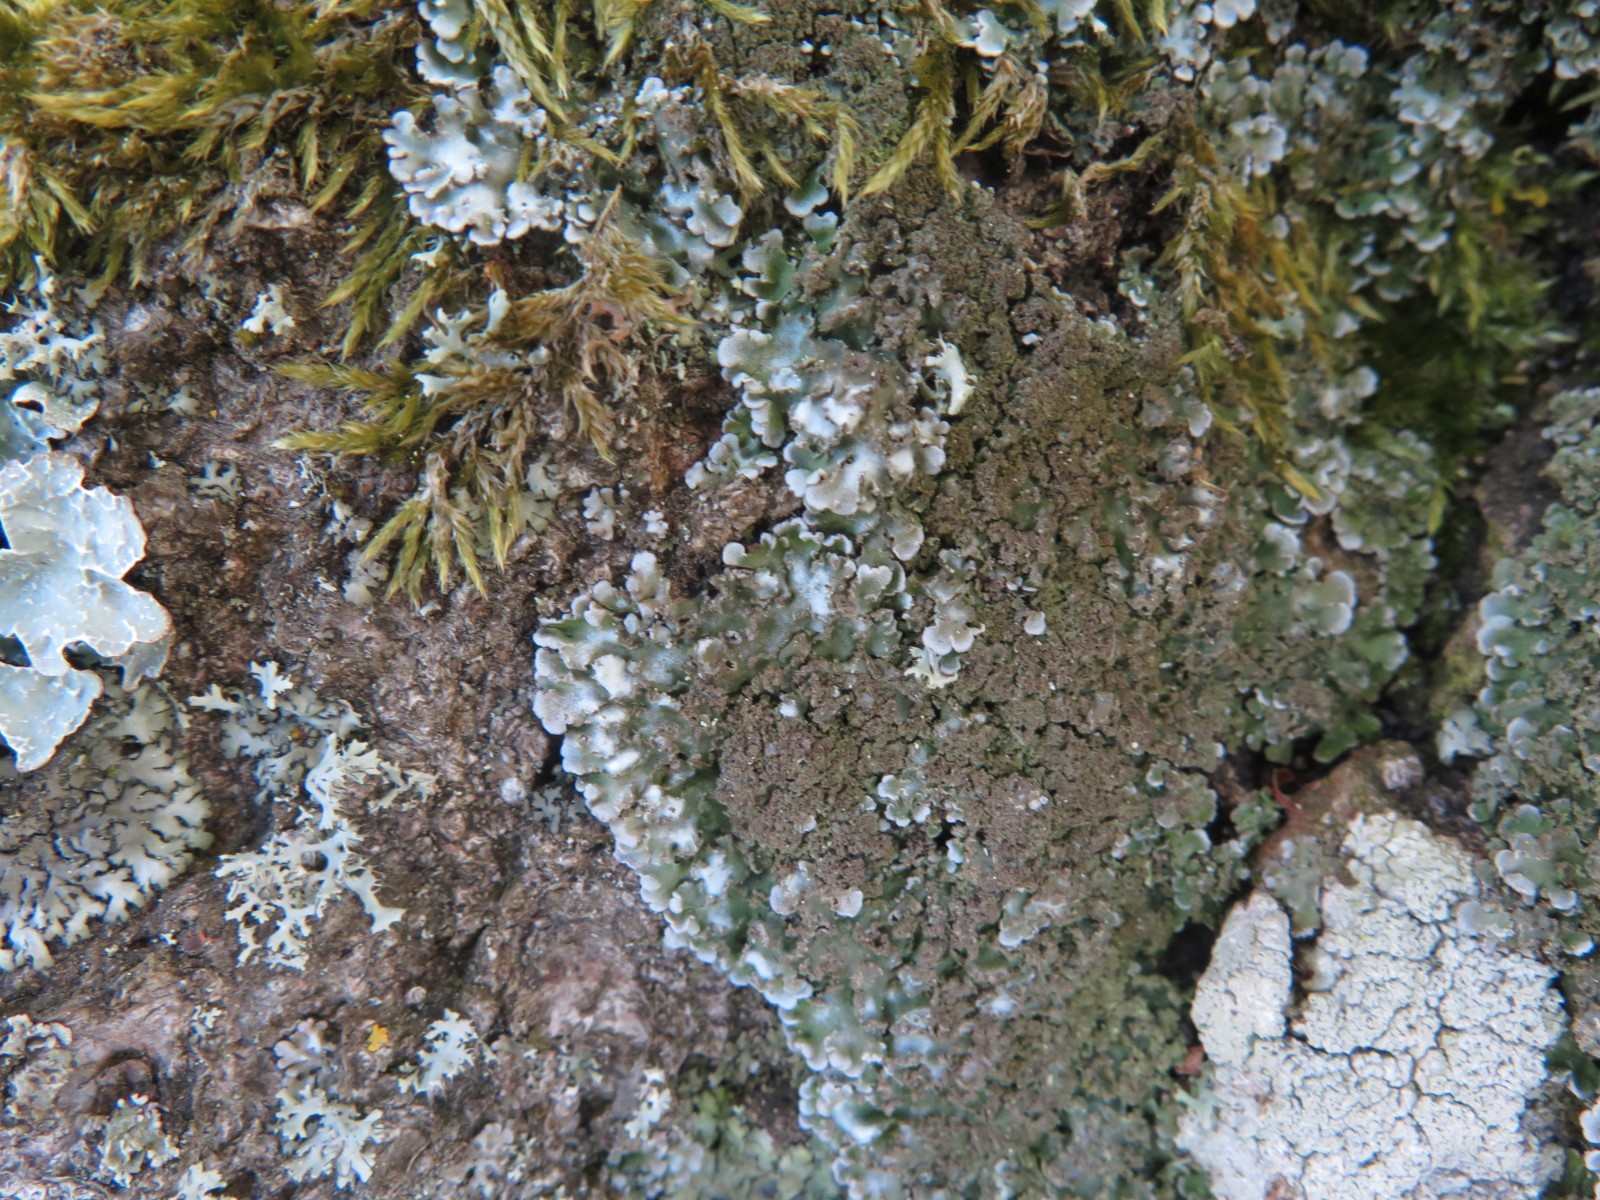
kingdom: Fungi
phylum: Ascomycota
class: Lecanoromycetes
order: Caliciales
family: Physciaceae
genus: Physconia
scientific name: Physconia enteroxantha
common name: grynet dugrosetlav
